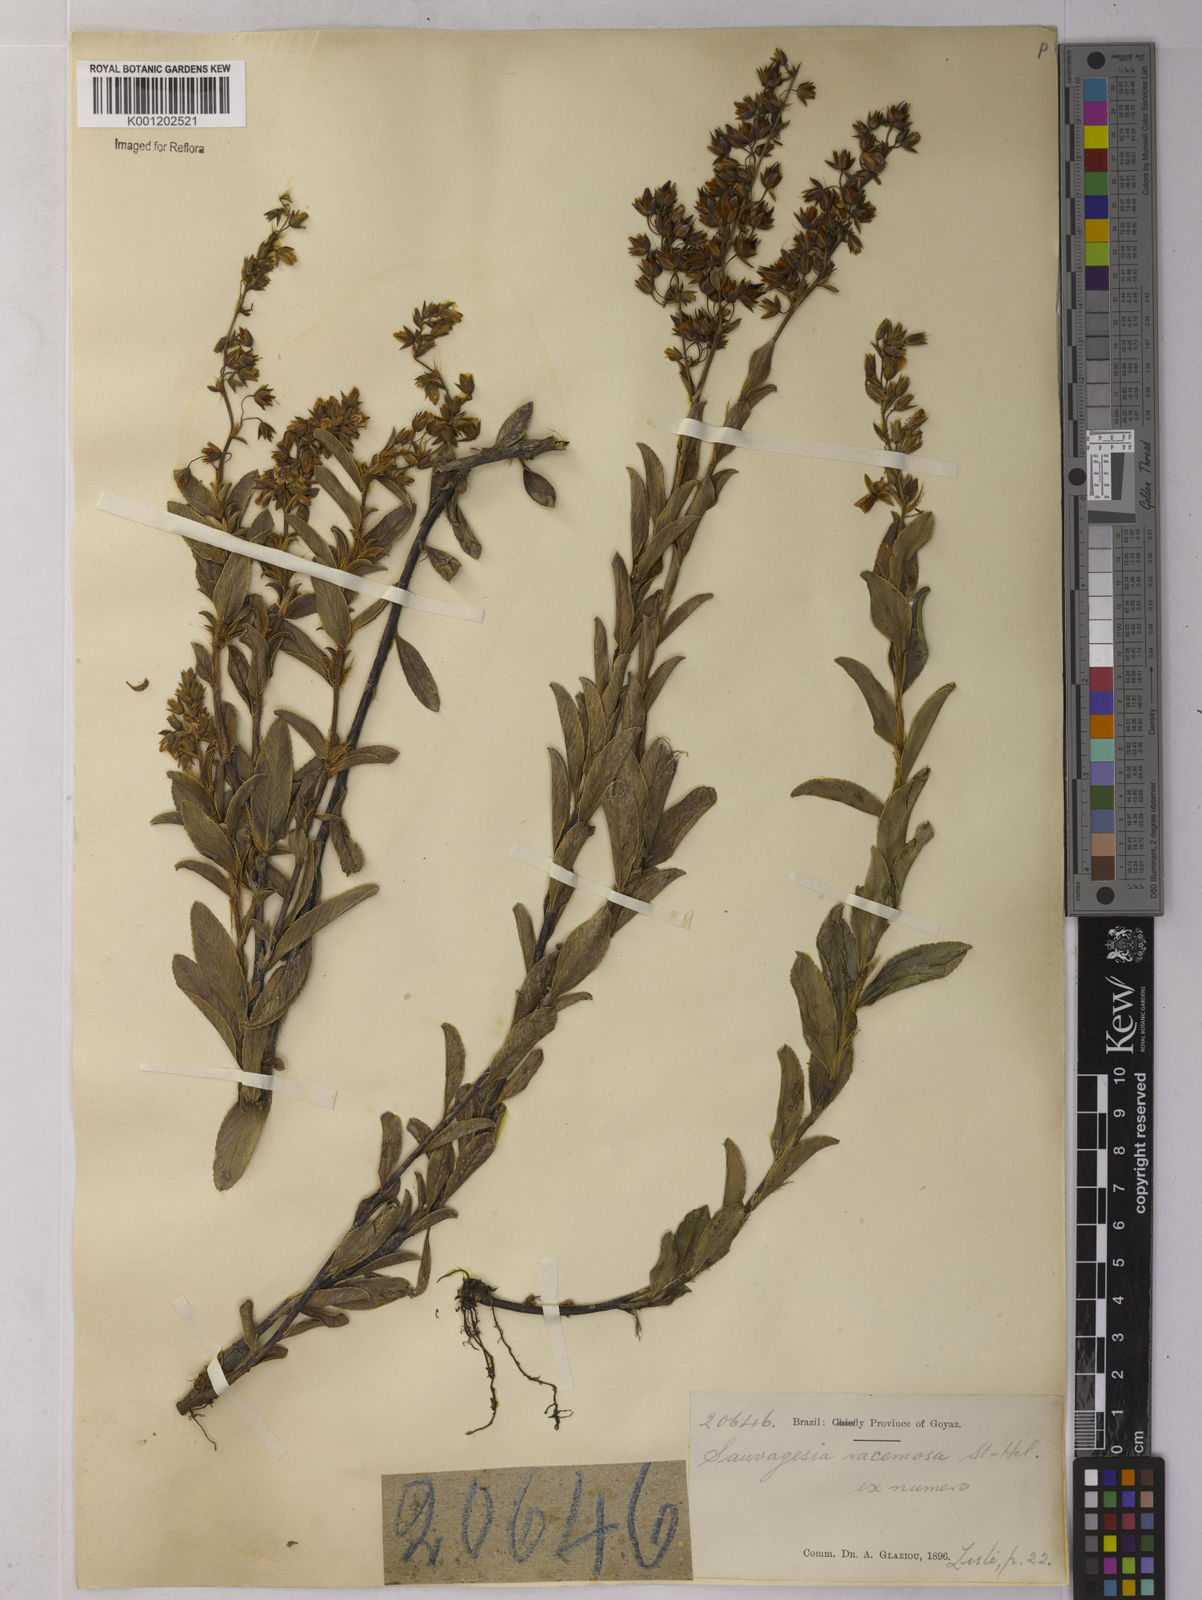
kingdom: Plantae
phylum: Tracheophyta
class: Magnoliopsida
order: Malpighiales
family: Ochnaceae
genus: Sauvagesia
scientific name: Sauvagesia racemosa
